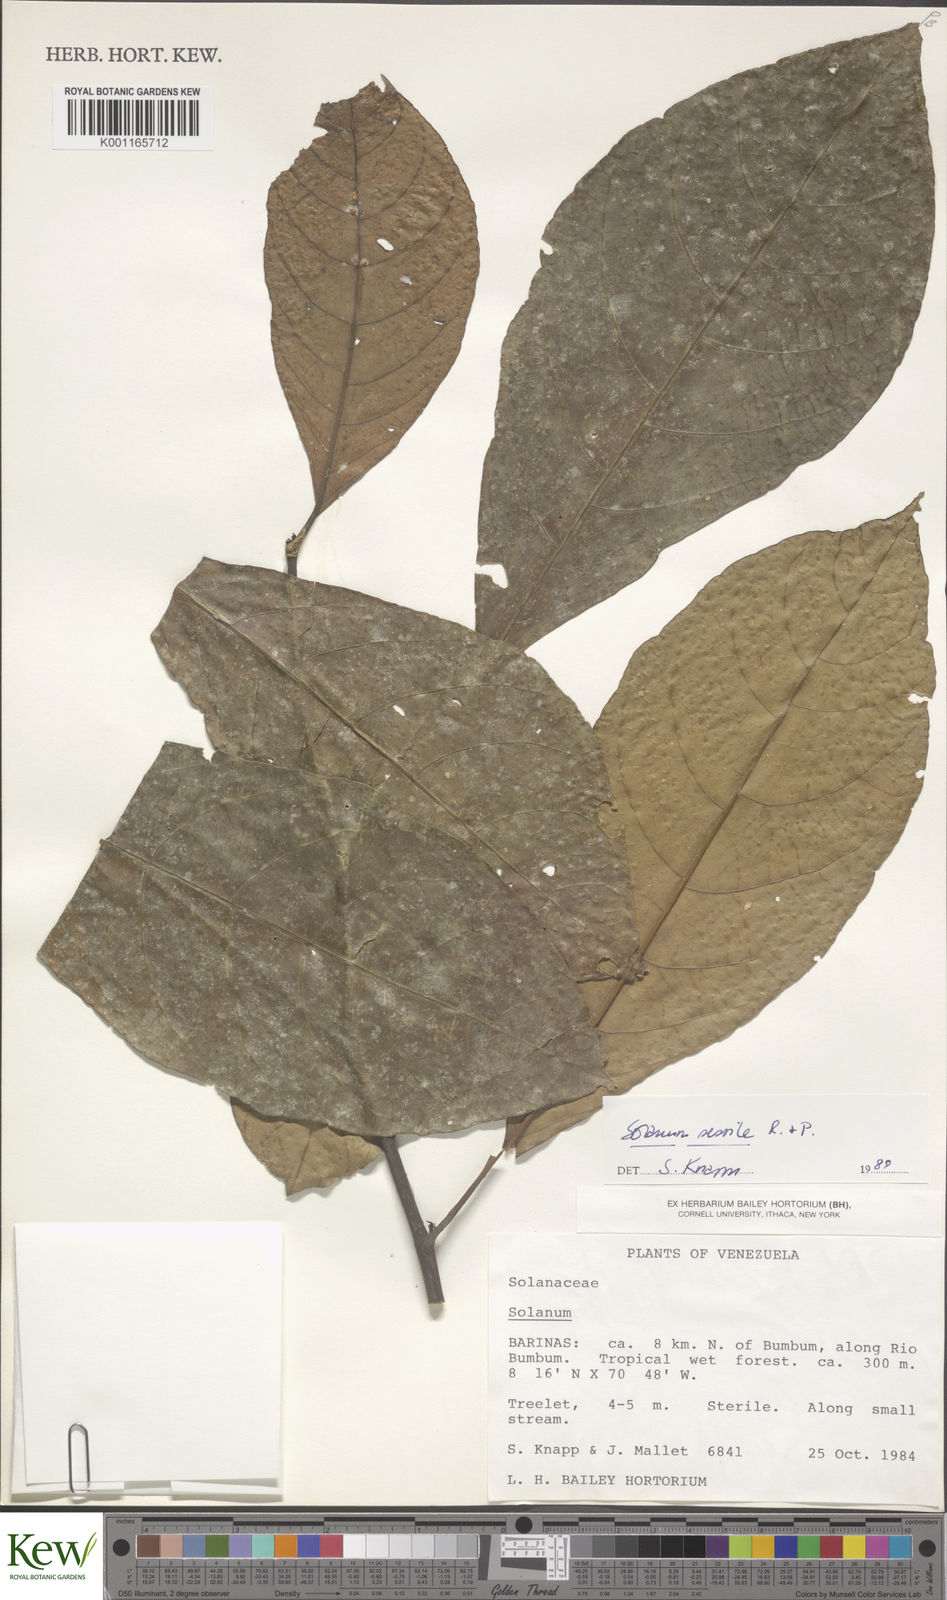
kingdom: Plantae
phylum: Tracheophyta
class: Magnoliopsida
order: Solanales
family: Solanaceae
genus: Solanum
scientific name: Solanum sessile
